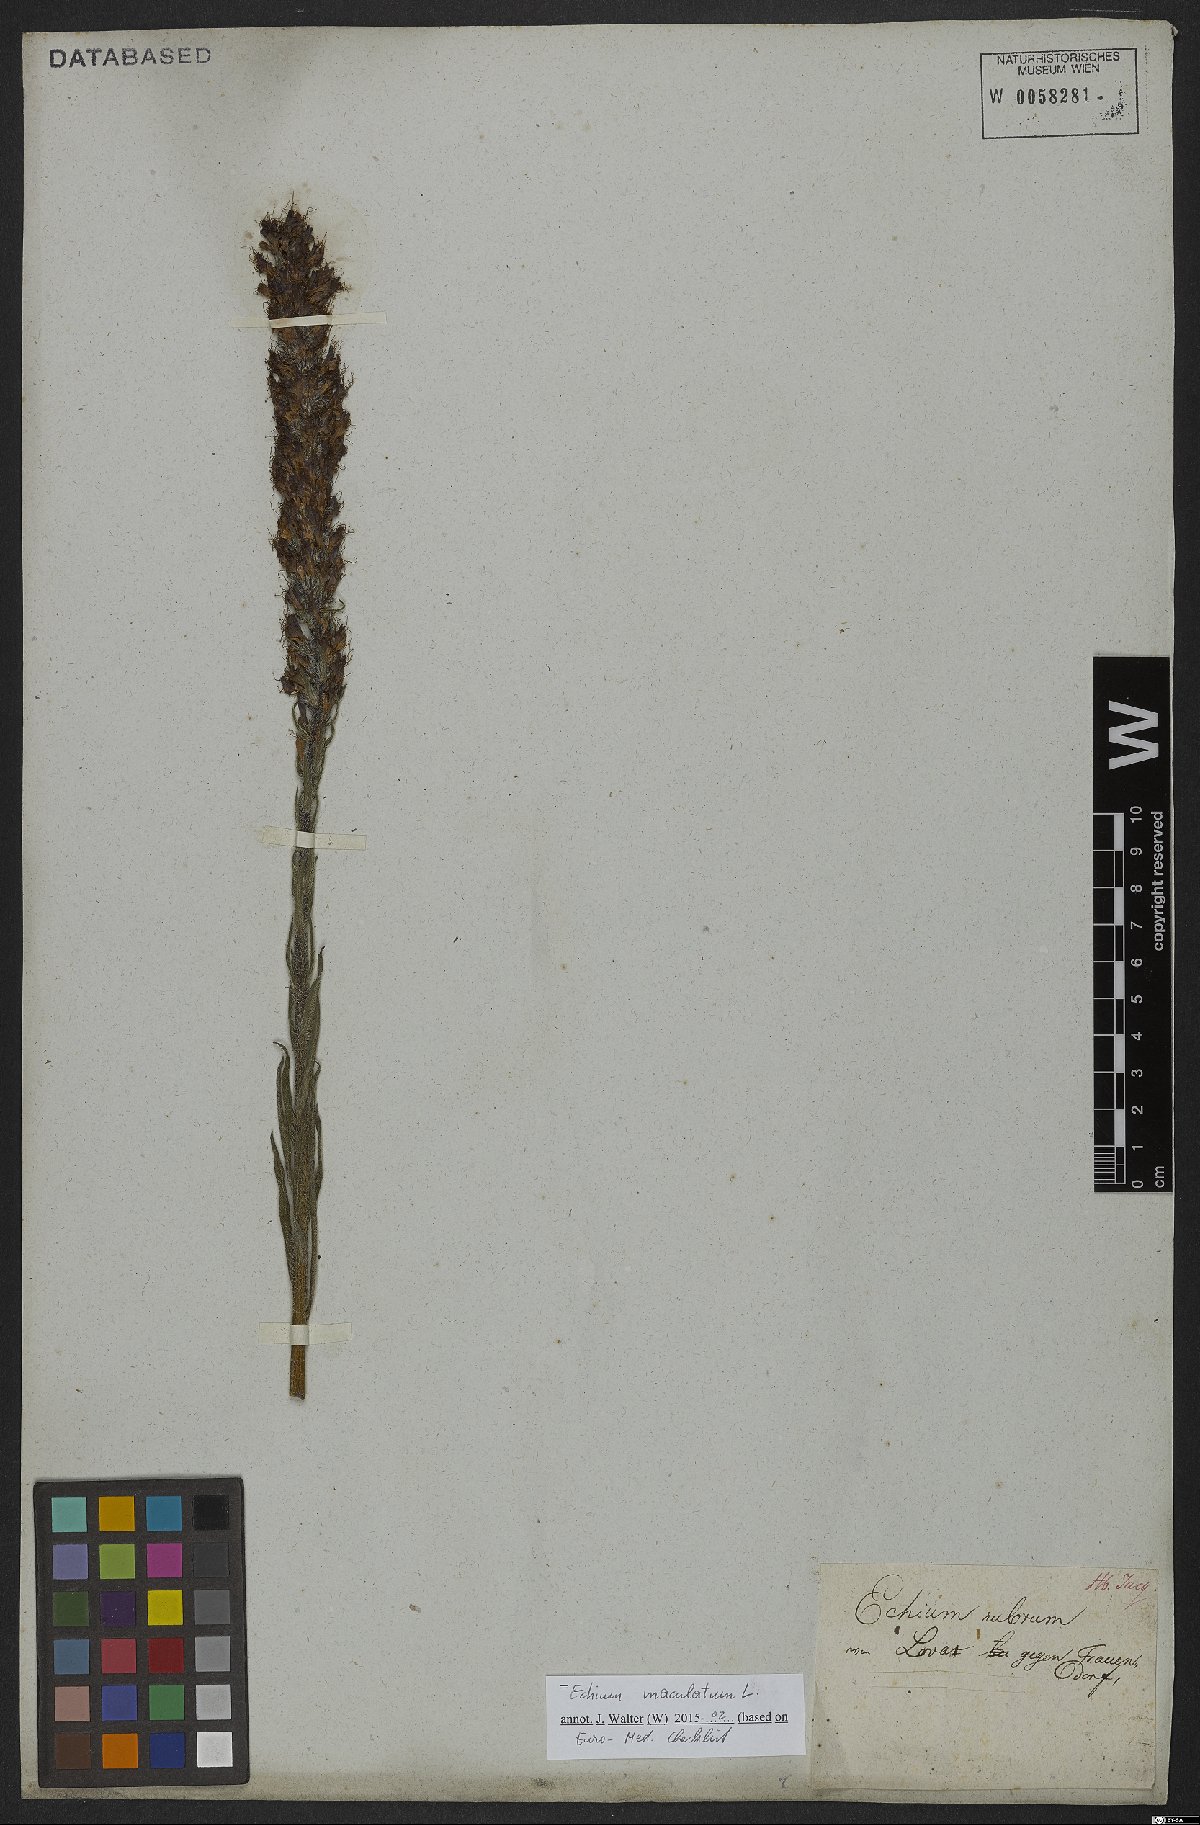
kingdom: Plantae
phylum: Tracheophyta
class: Magnoliopsida
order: Boraginales
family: Boraginaceae
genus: Pontechium
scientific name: Pontechium maculatum
